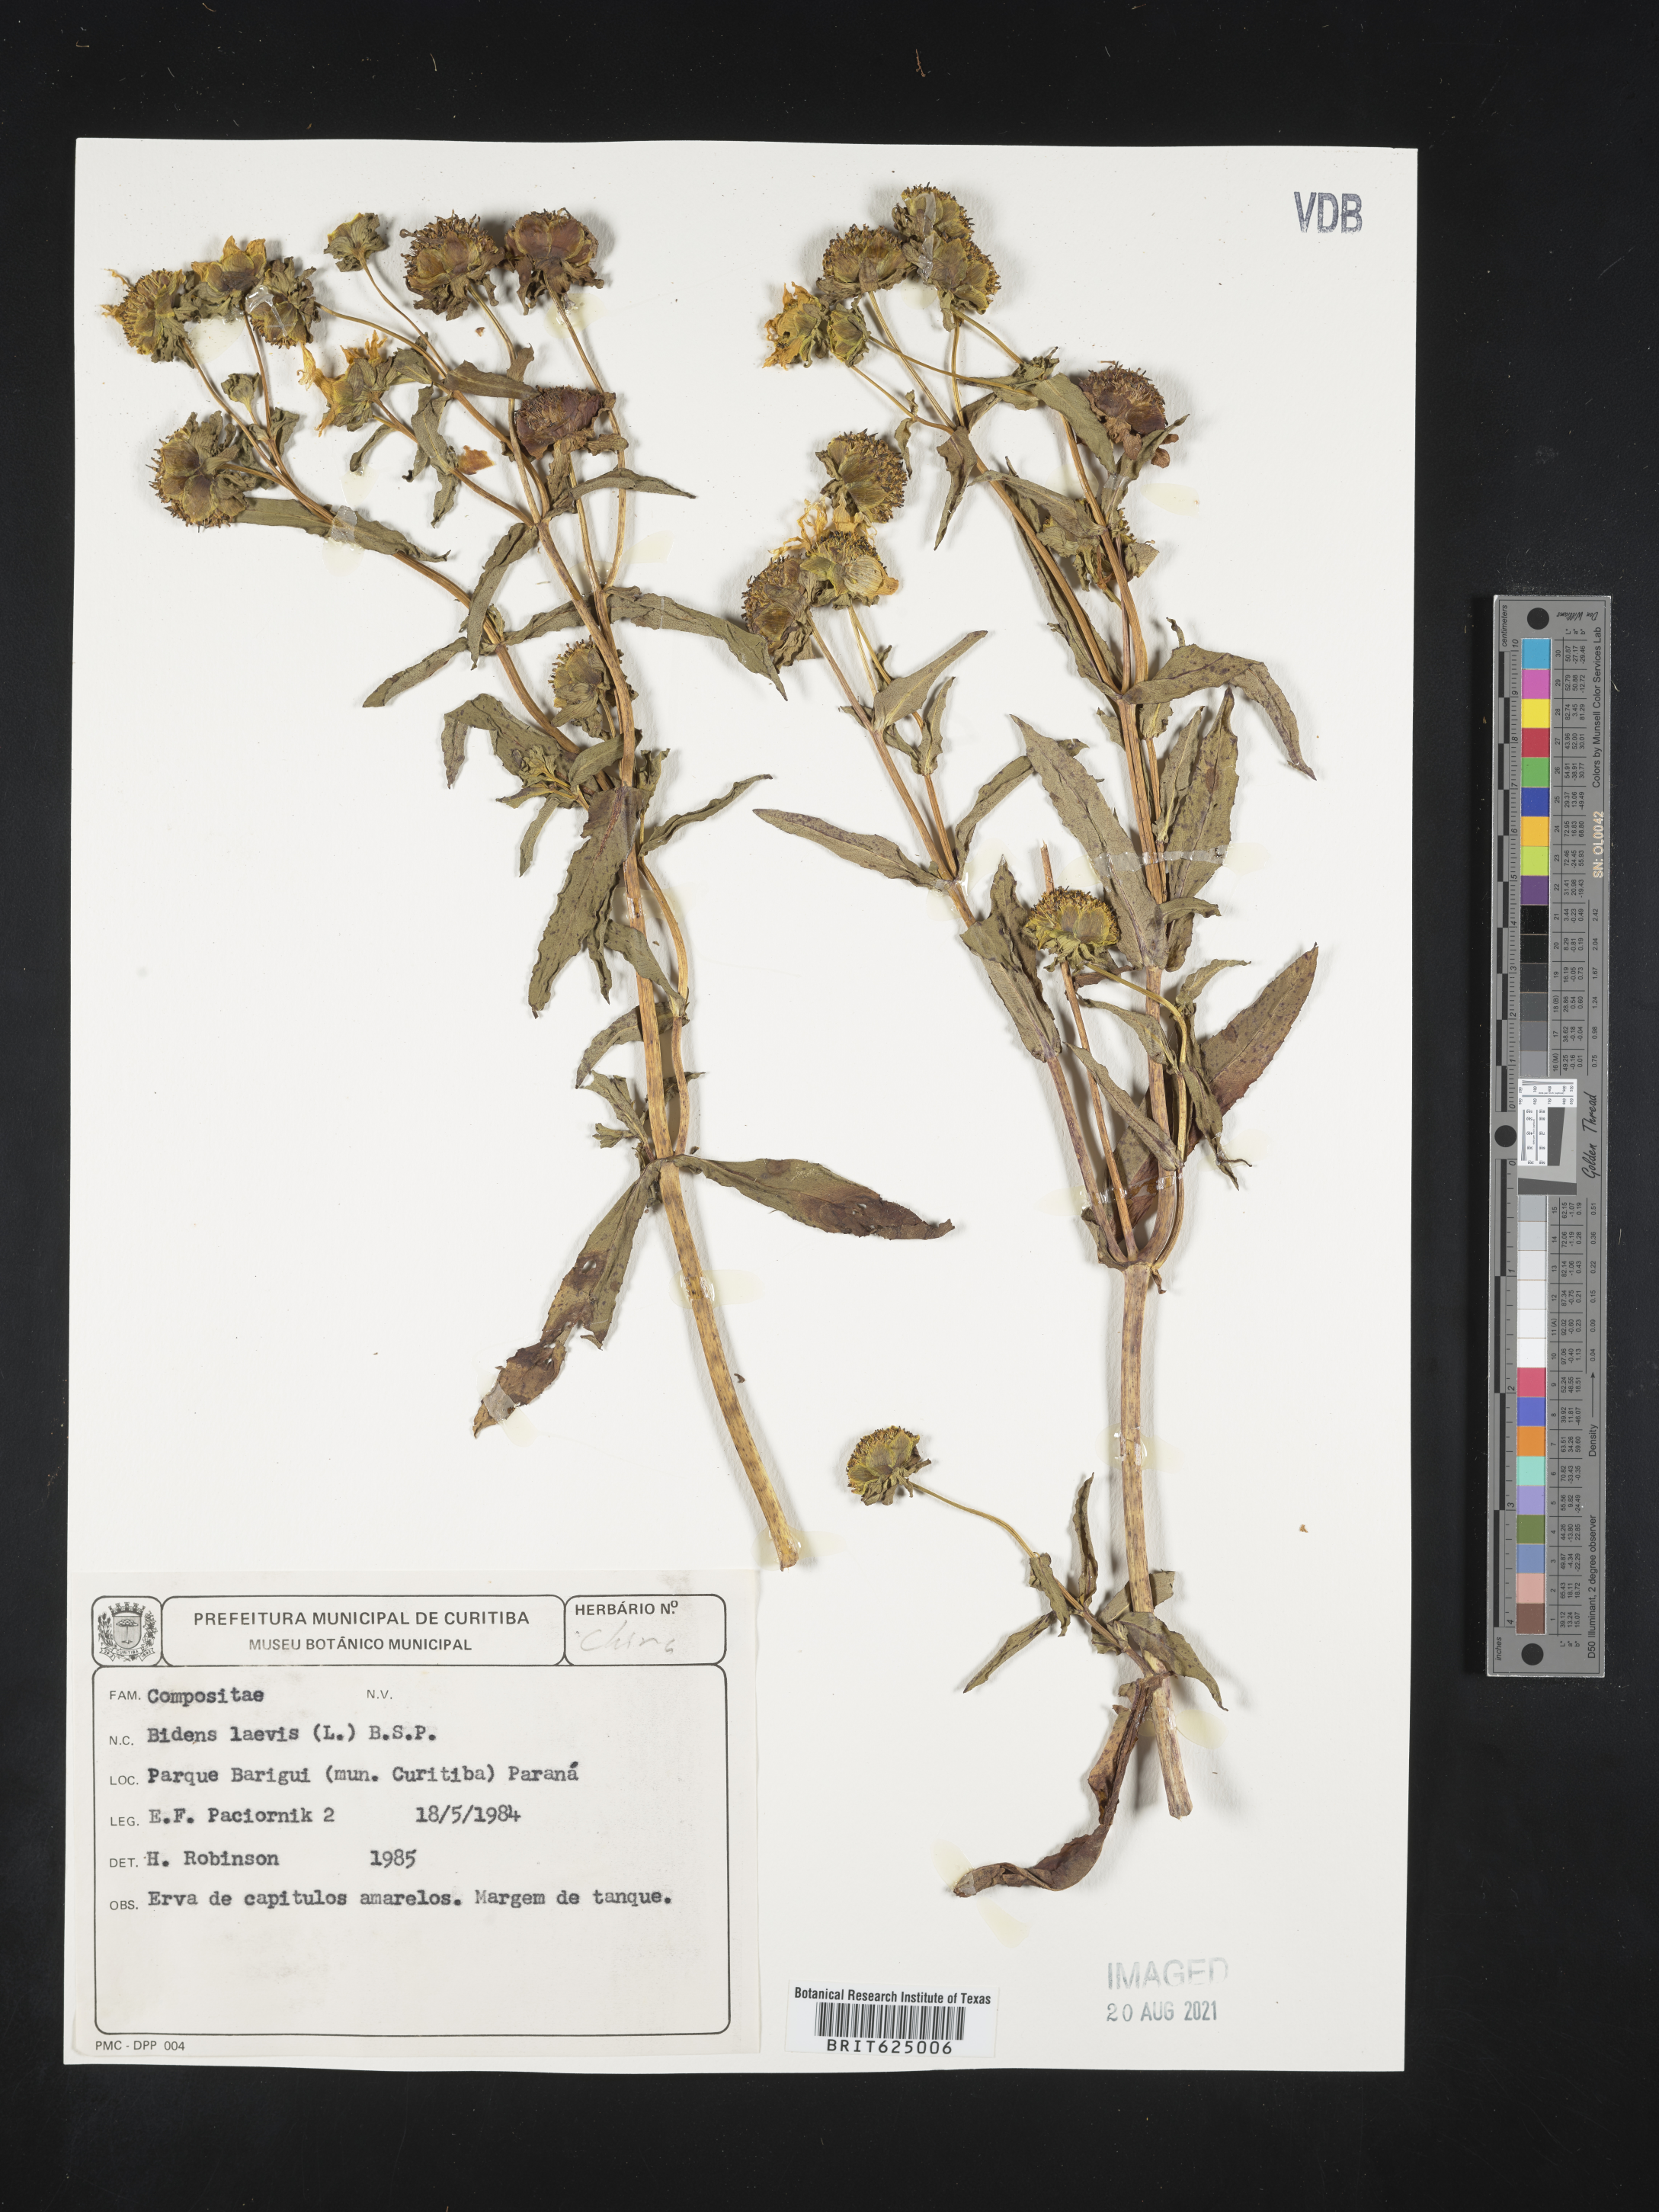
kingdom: Plantae
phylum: Tracheophyta
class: Magnoliopsida
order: Asterales
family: Asteraceae
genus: Bidens
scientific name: Bidens laevis
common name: Larger bur-marigold
